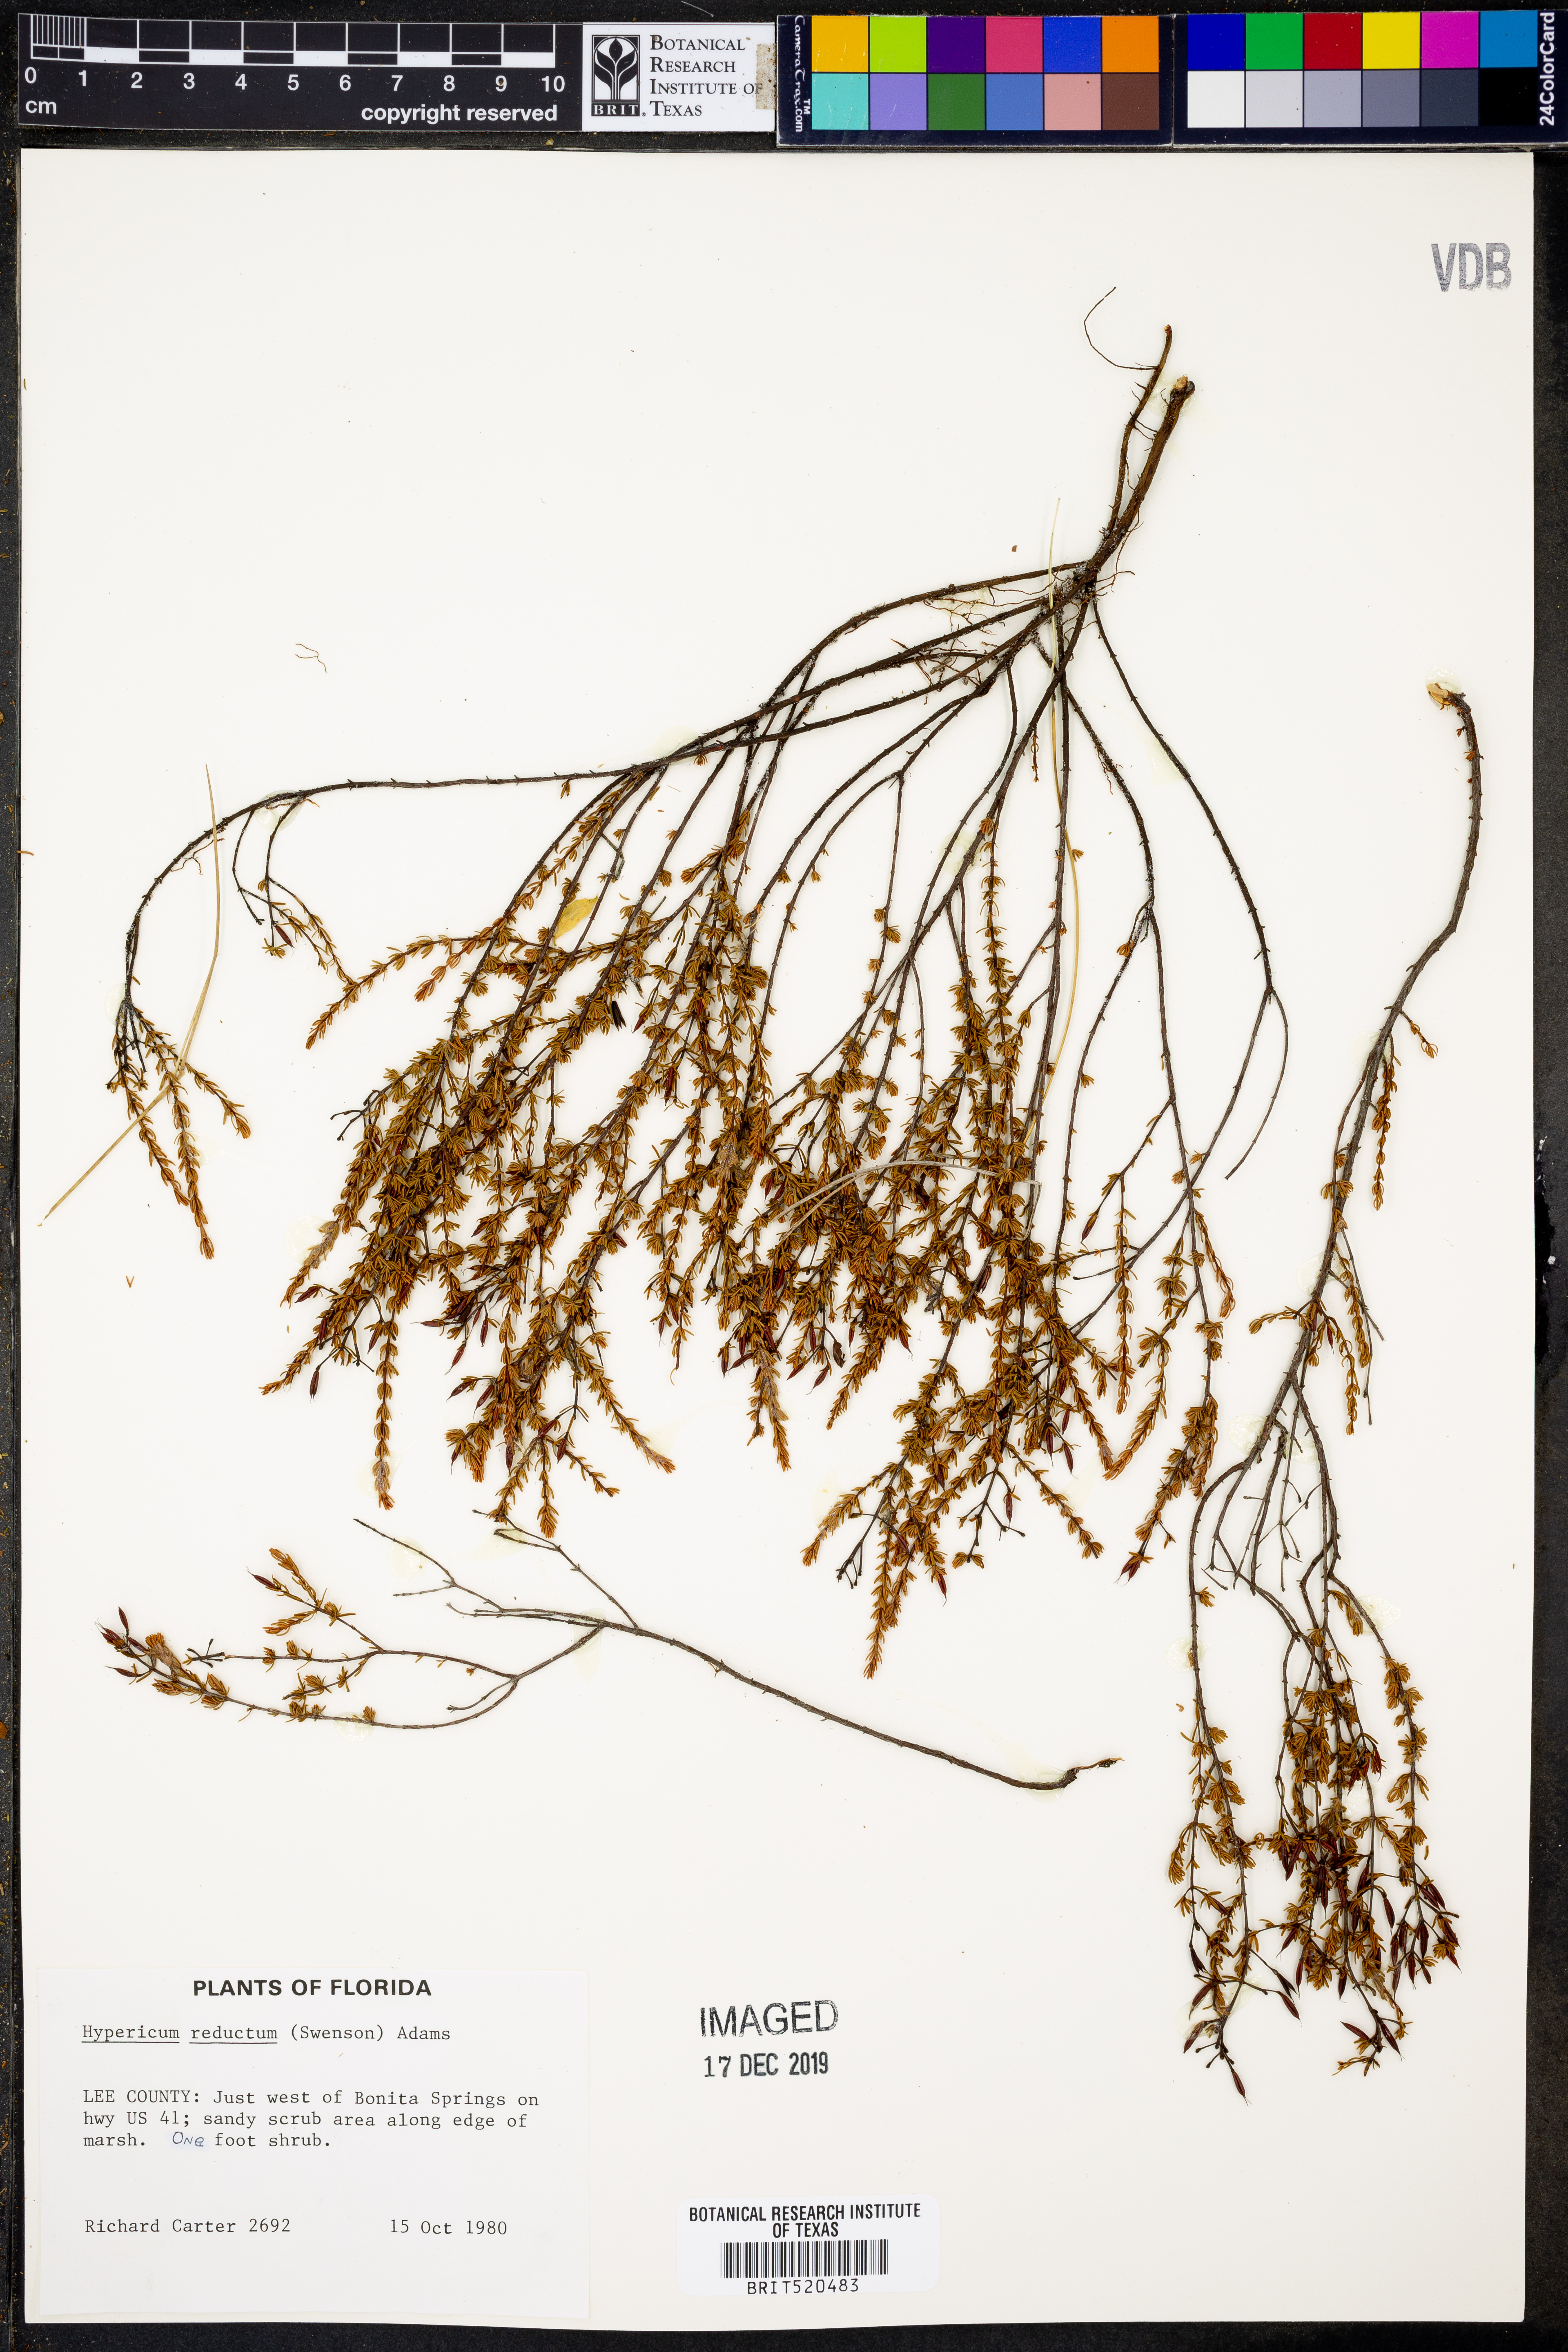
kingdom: Plantae
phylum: Tracheophyta
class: Magnoliopsida
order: Malpighiales
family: Hypericaceae
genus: Hypericum
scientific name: Hypericum tenuifolium
